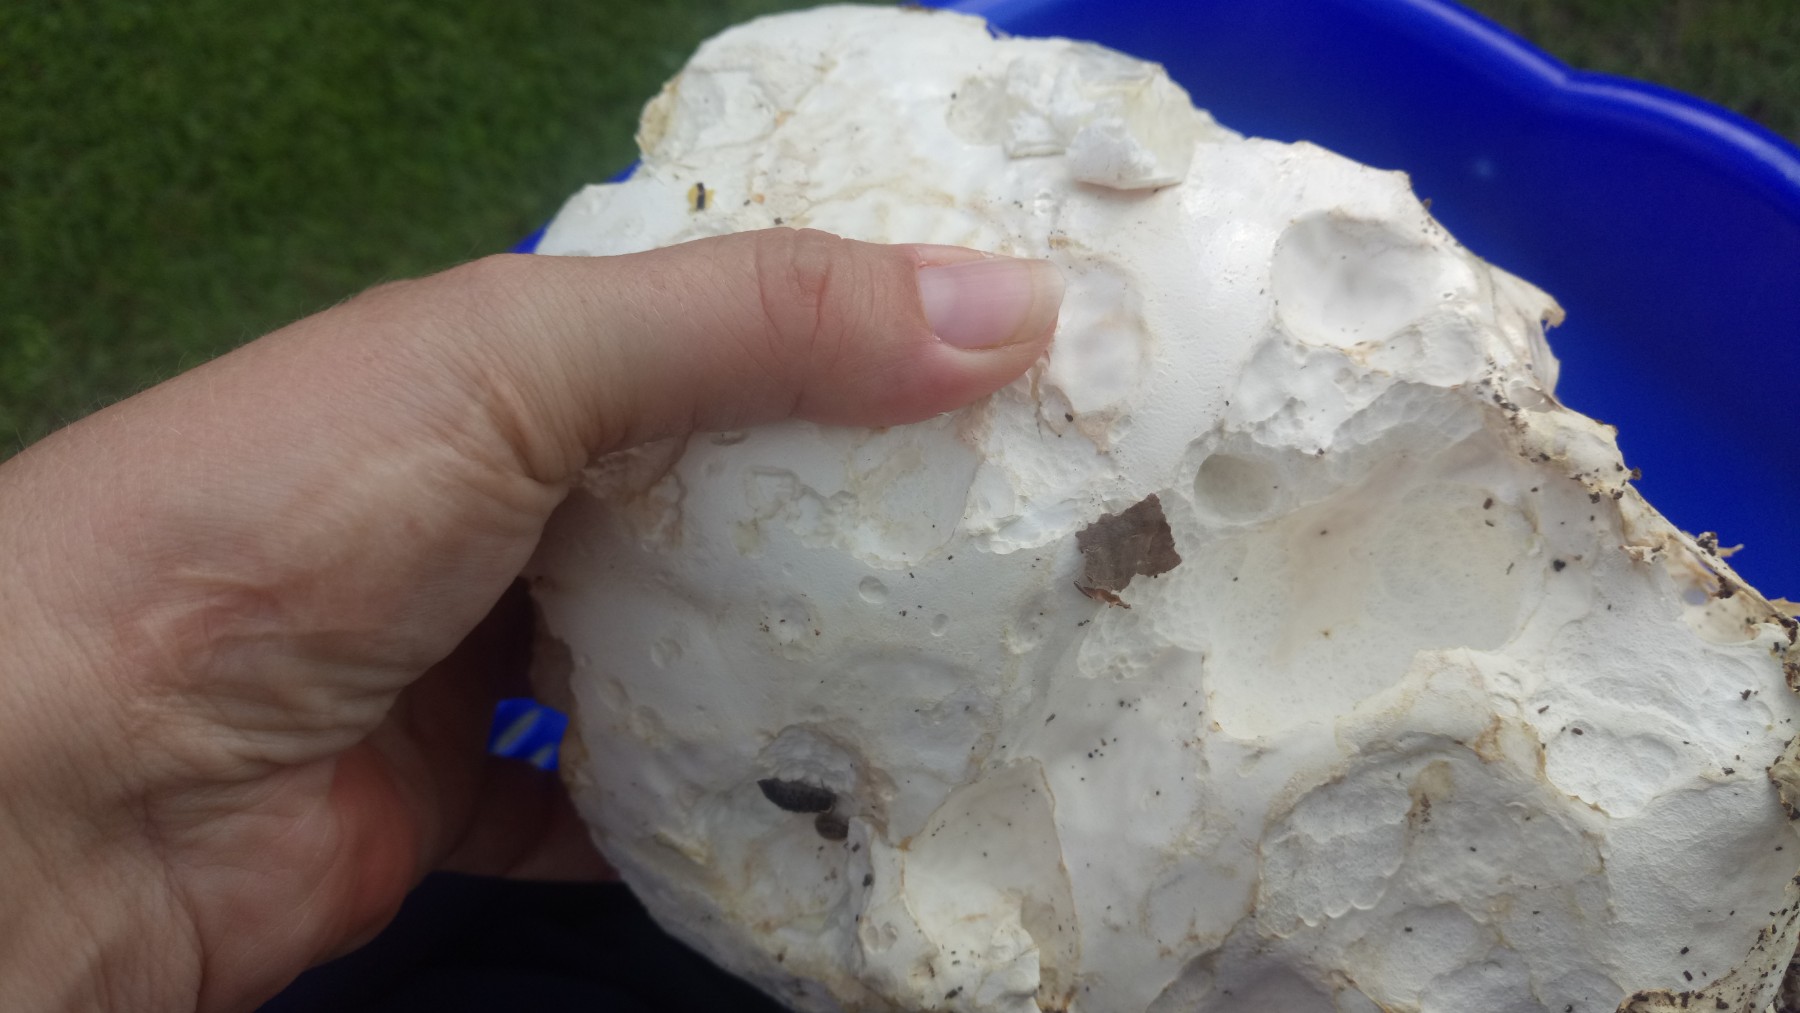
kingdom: Fungi
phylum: Basidiomycota
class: Agaricomycetes
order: Agaricales
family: Lycoperdaceae
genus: Calvatia
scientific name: Calvatia gigantea
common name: kæmpestøvbold
